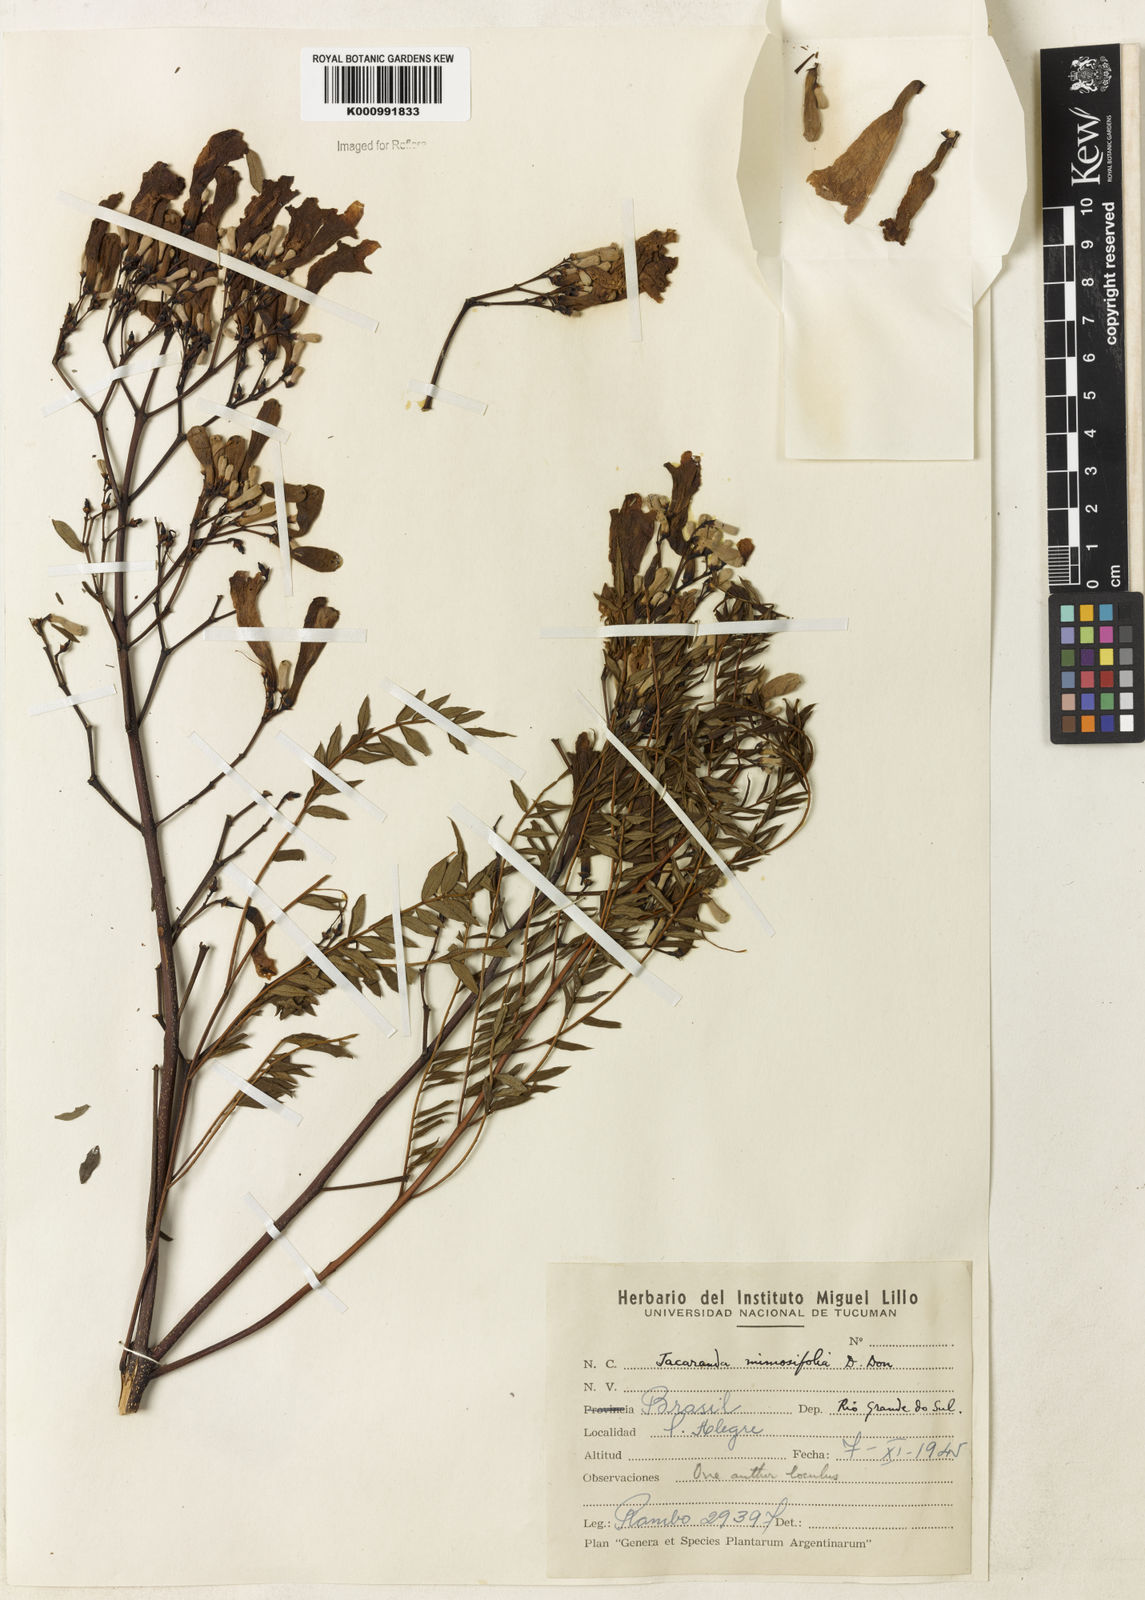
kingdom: Plantae
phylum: Tracheophyta
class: Magnoliopsida
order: Lamiales
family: Bignoniaceae
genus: Jacaranda
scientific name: Jacaranda mimosifolia
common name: Black poui
